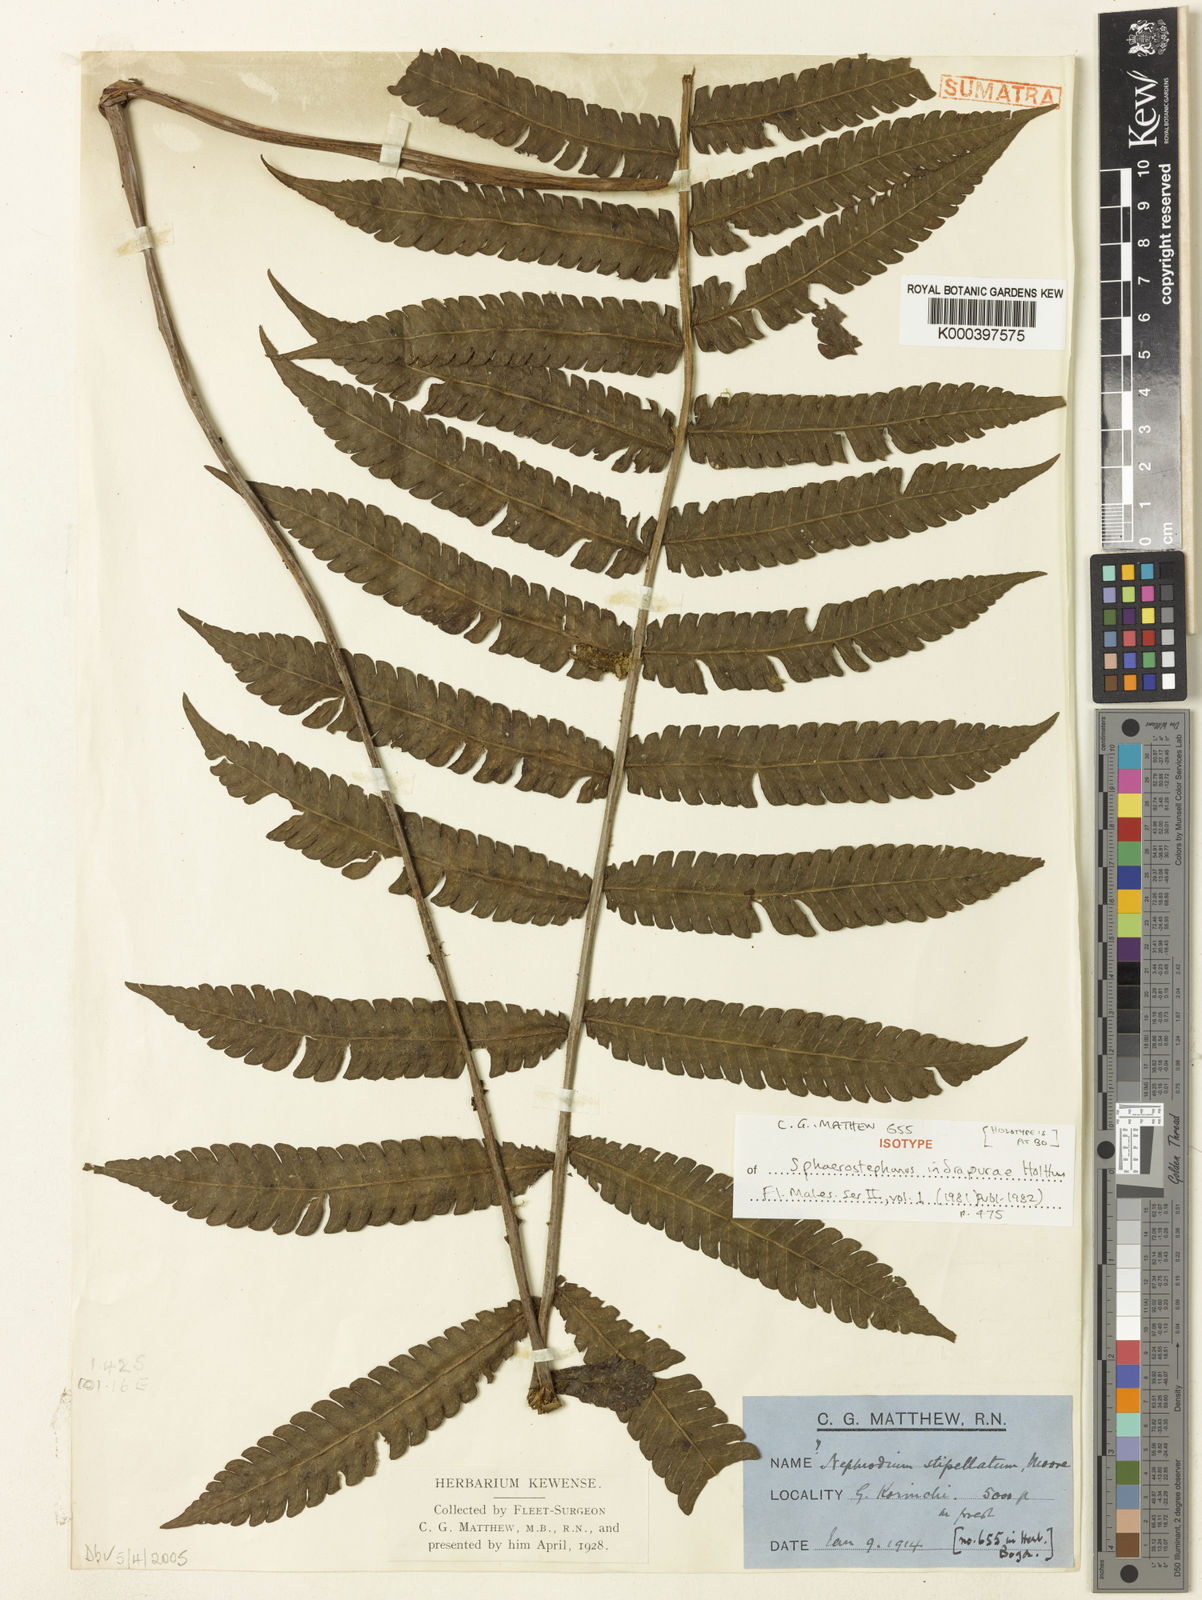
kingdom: Plantae
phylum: Tracheophyta
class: Polypodiopsida
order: Polypodiales
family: Thelypteridaceae
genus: Sphaerostephanos
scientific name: Sphaerostephanos indrapurae
